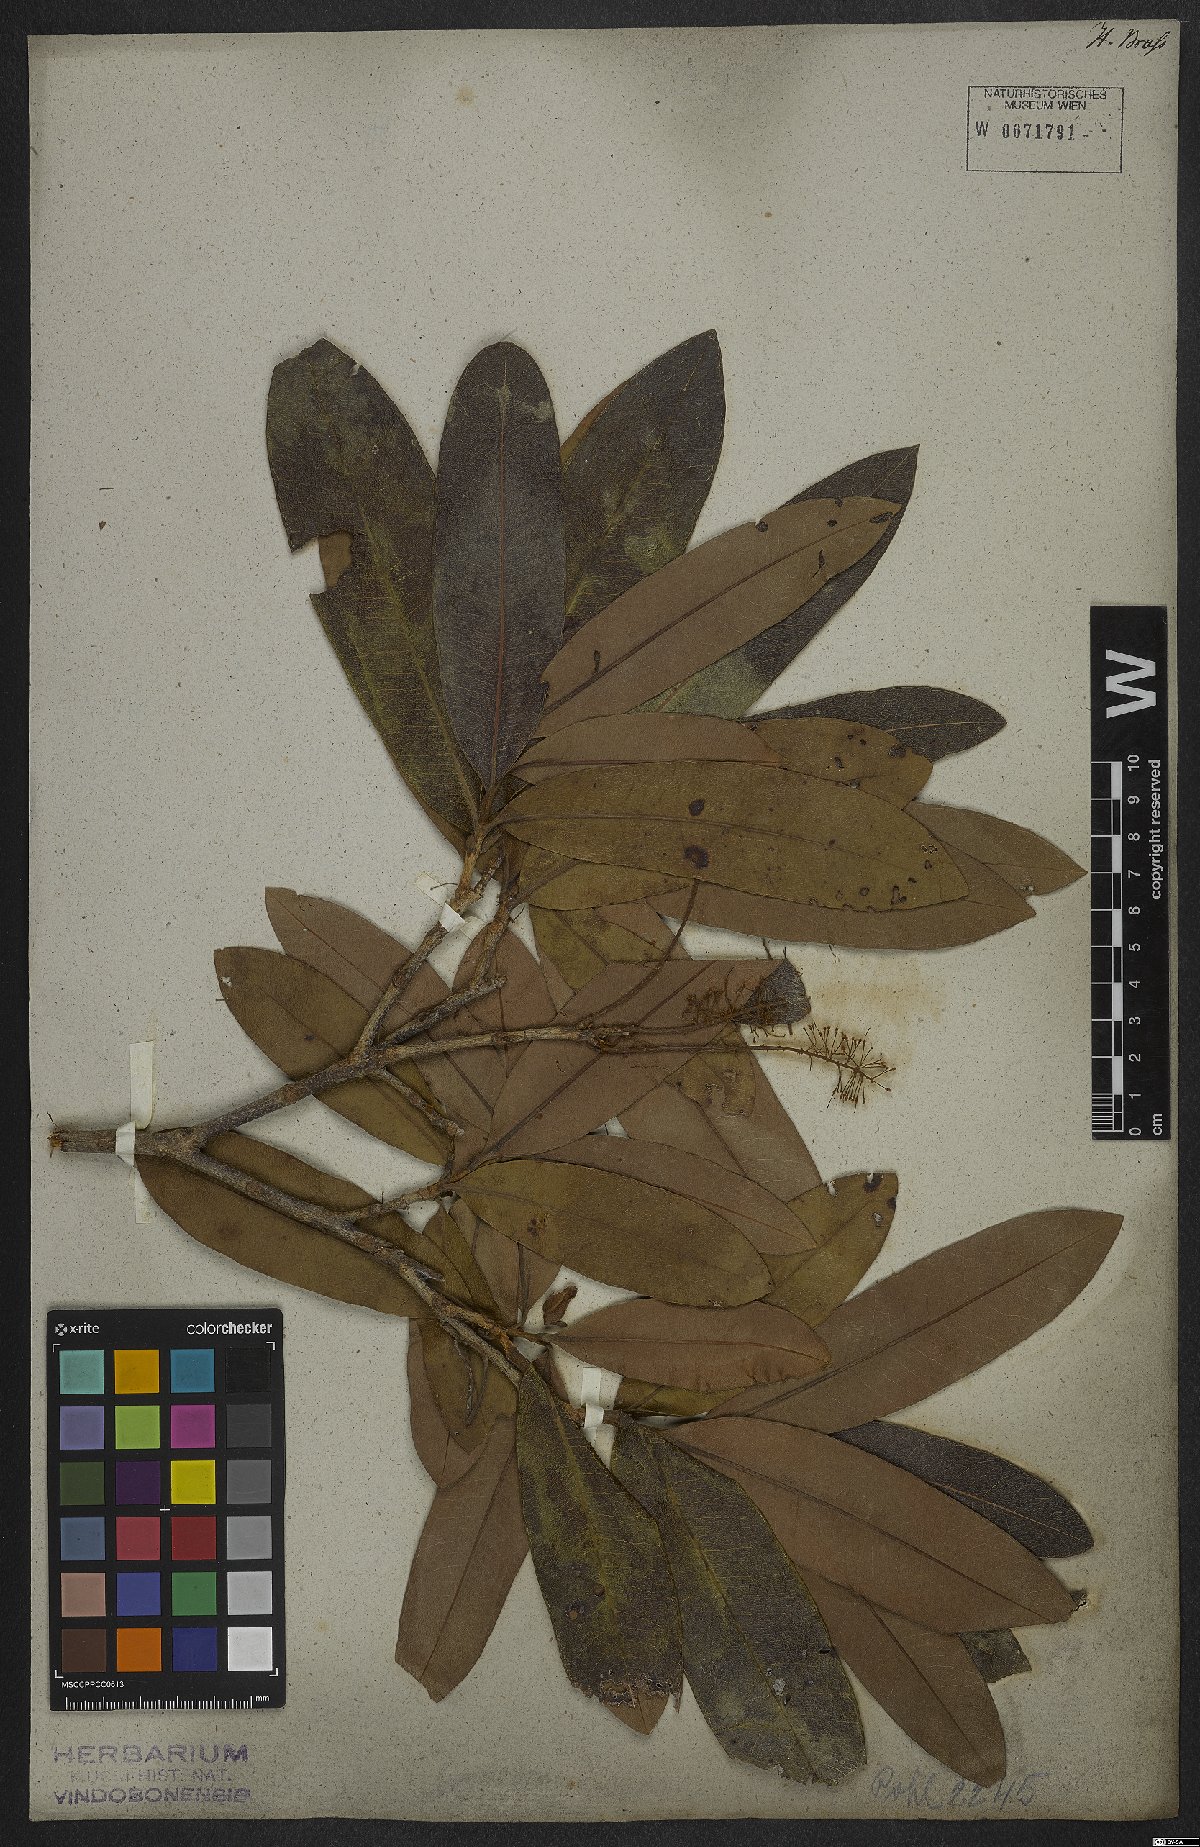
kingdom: Plantae
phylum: Tracheophyta
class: Magnoliopsida
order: Proteales
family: Proteaceae
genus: Panopsis
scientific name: Panopsis rubescens
